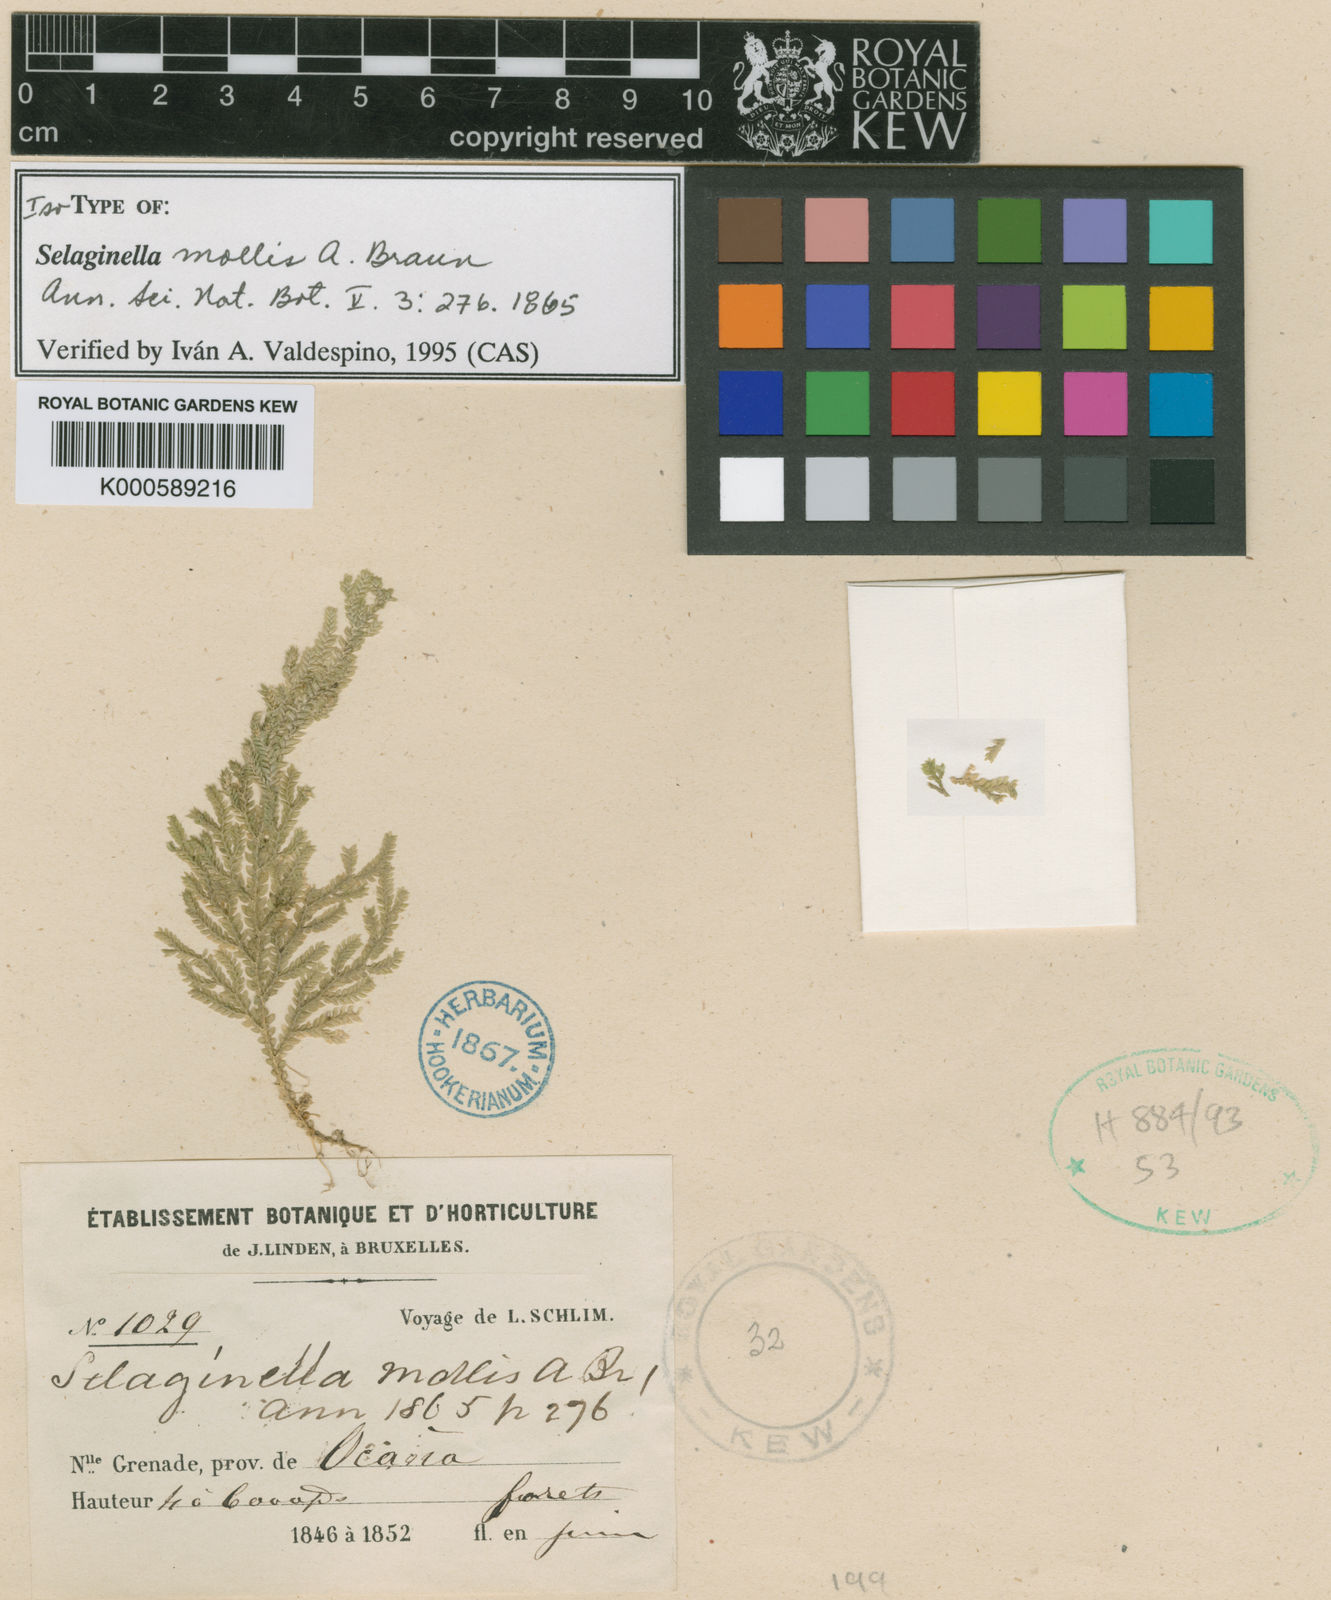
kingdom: Plantae
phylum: Tracheophyta
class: Lycopodiopsida
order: Selaginellales
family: Selaginellaceae
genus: Selaginella
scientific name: Selaginella
